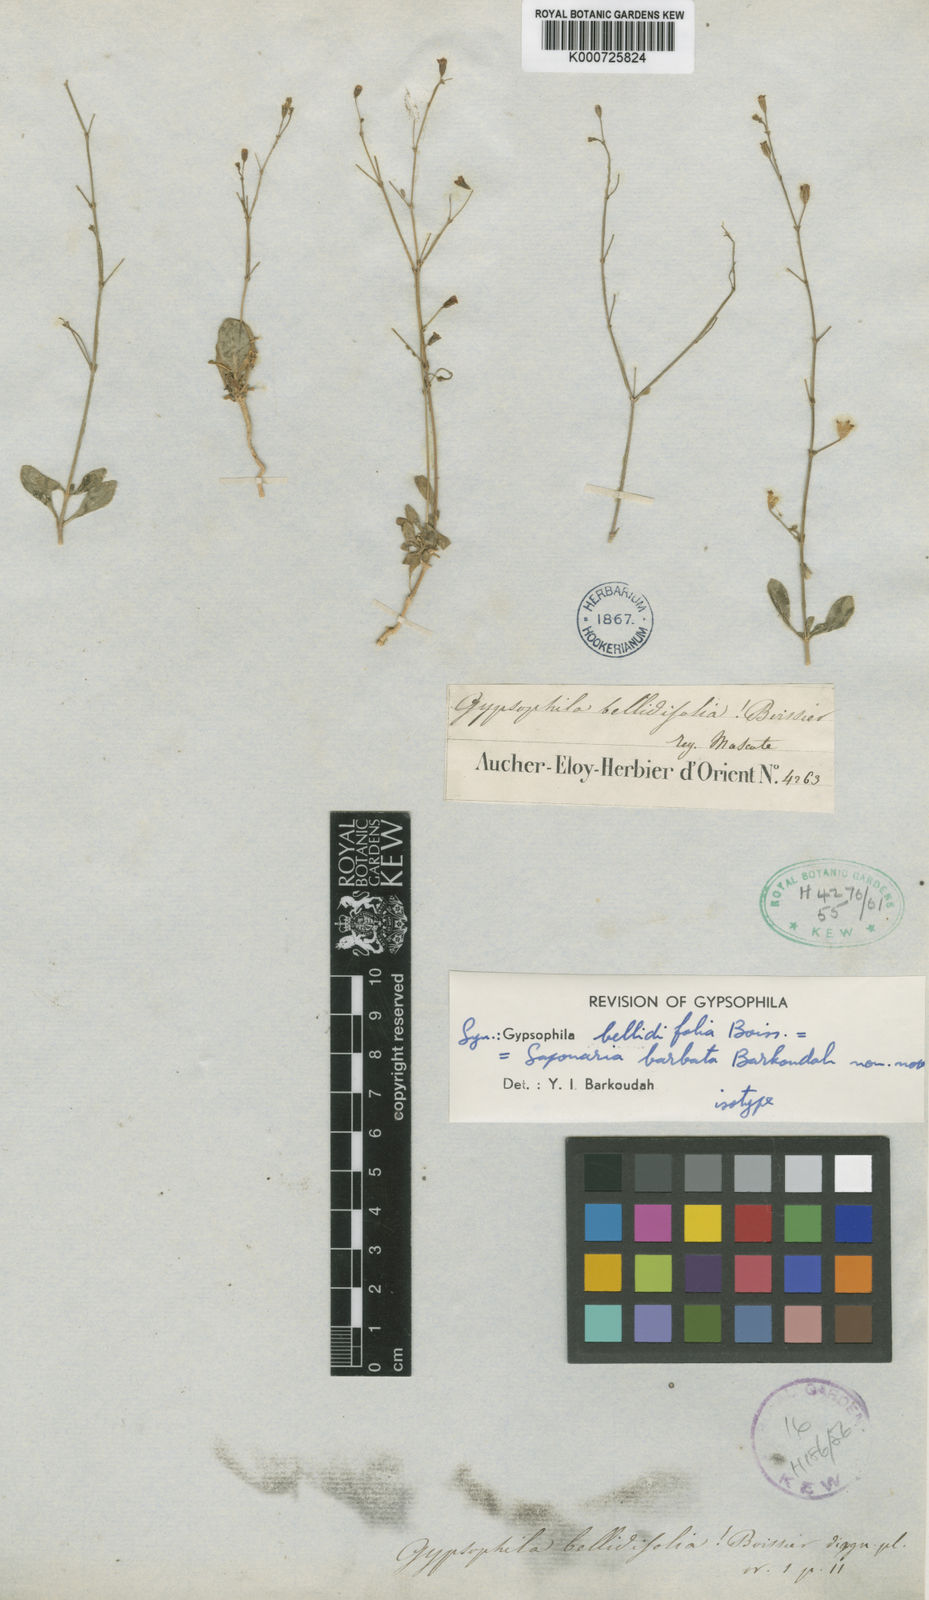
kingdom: Plantae
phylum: Tracheophyta
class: Magnoliopsida
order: Caryophyllales
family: Caryophyllaceae
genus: Psammophiliella
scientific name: Psammophiliella bellidifolia
